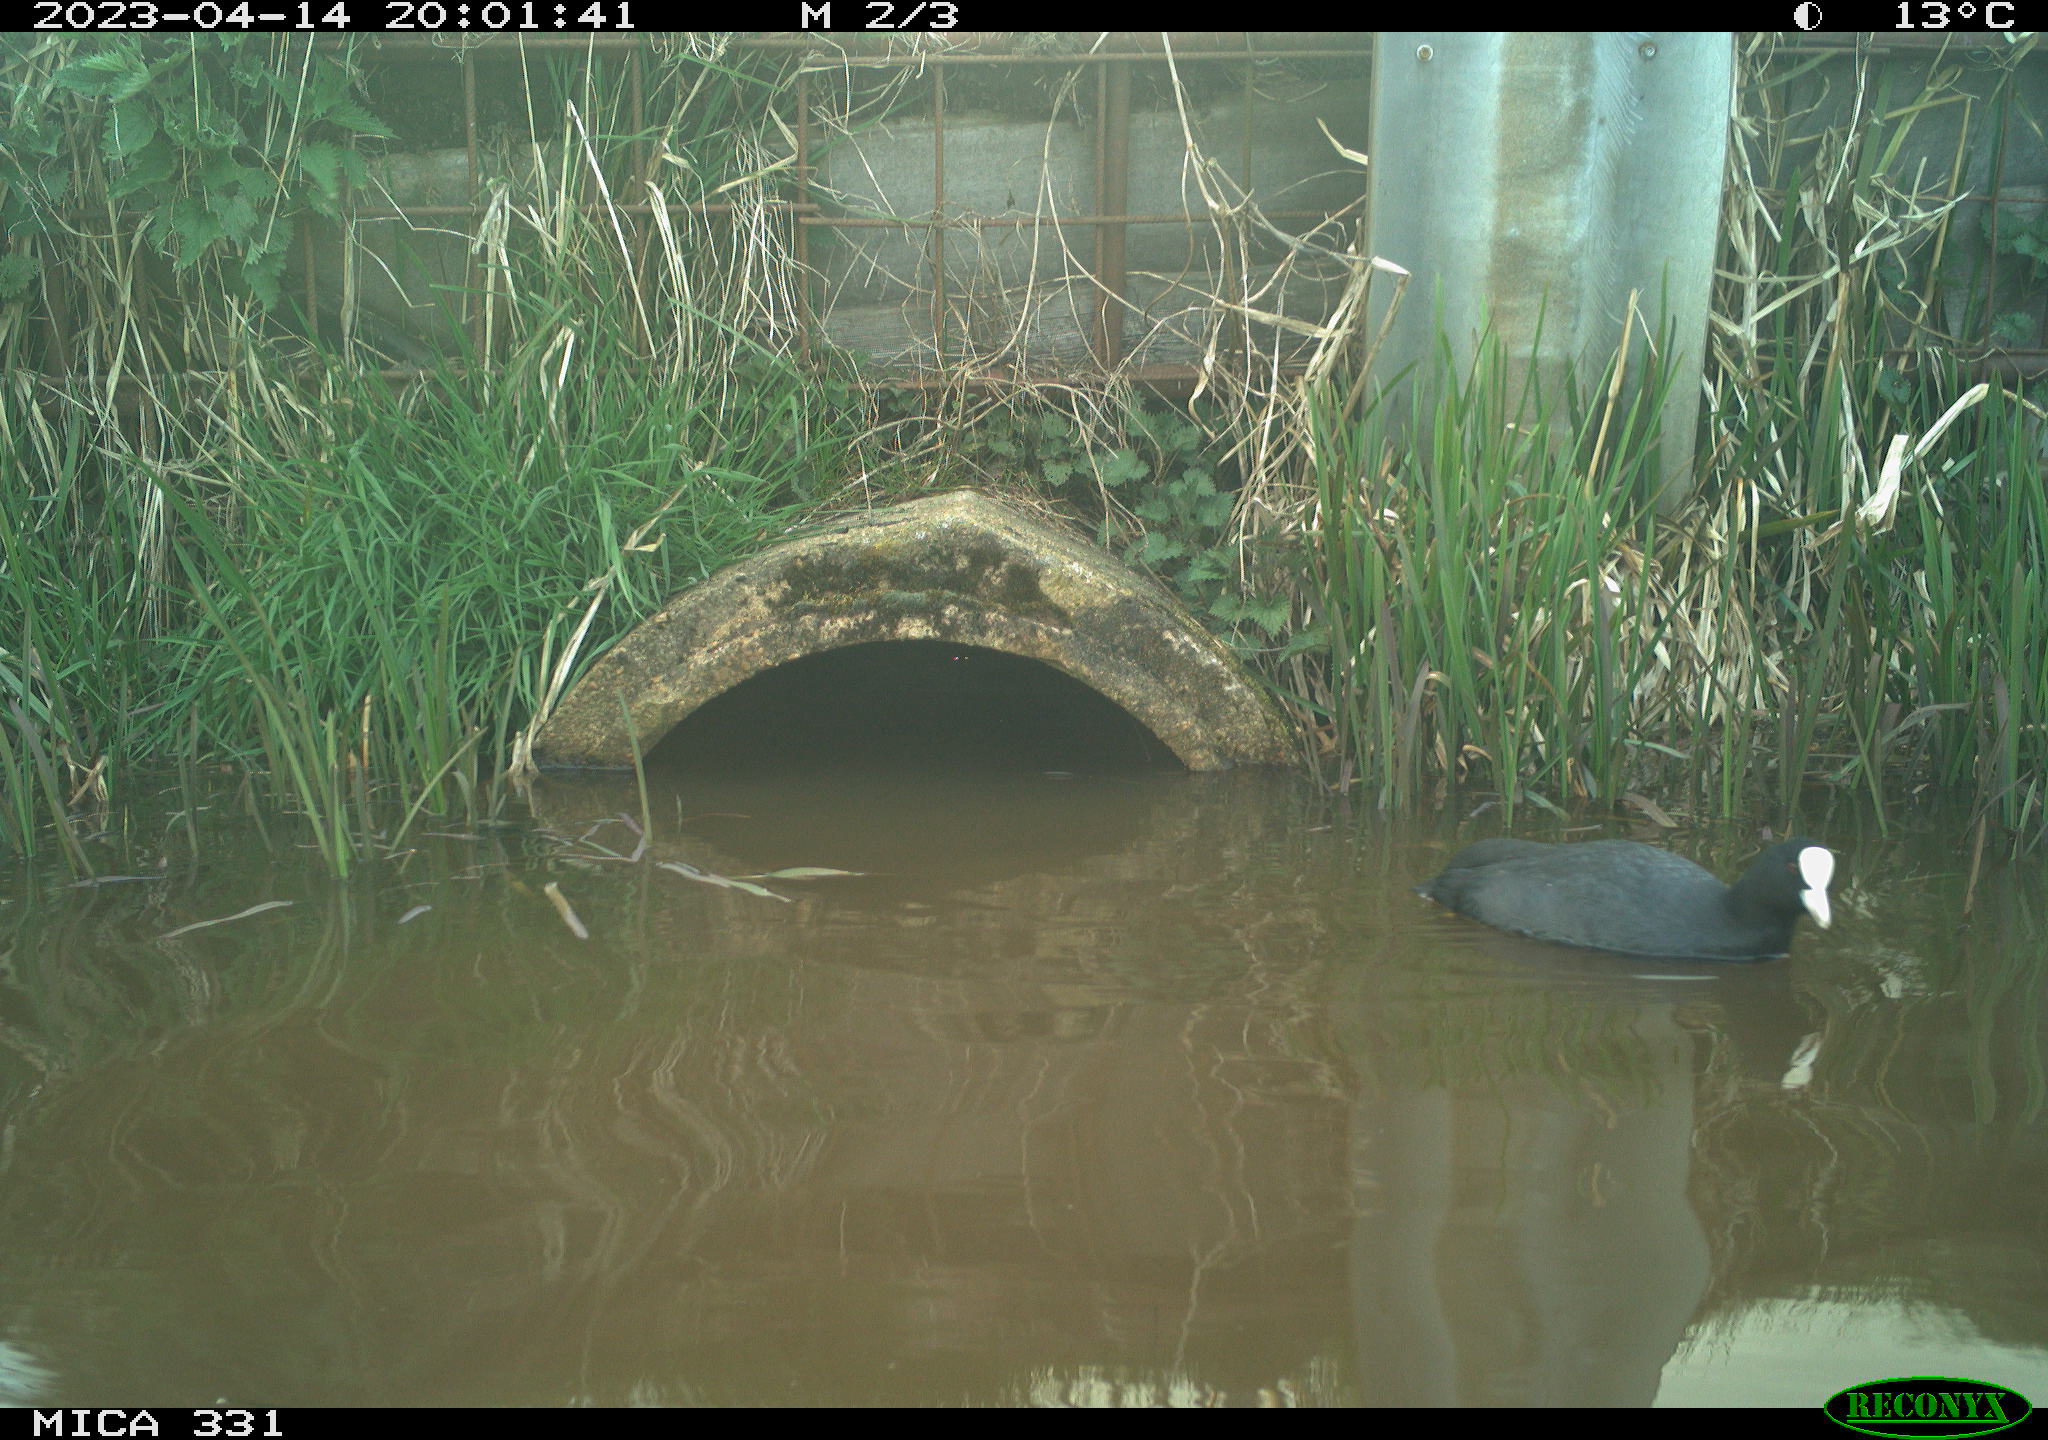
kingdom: Animalia
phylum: Chordata
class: Aves
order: Gruiformes
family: Rallidae
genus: Fulica
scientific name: Fulica atra
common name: Eurasian coot
